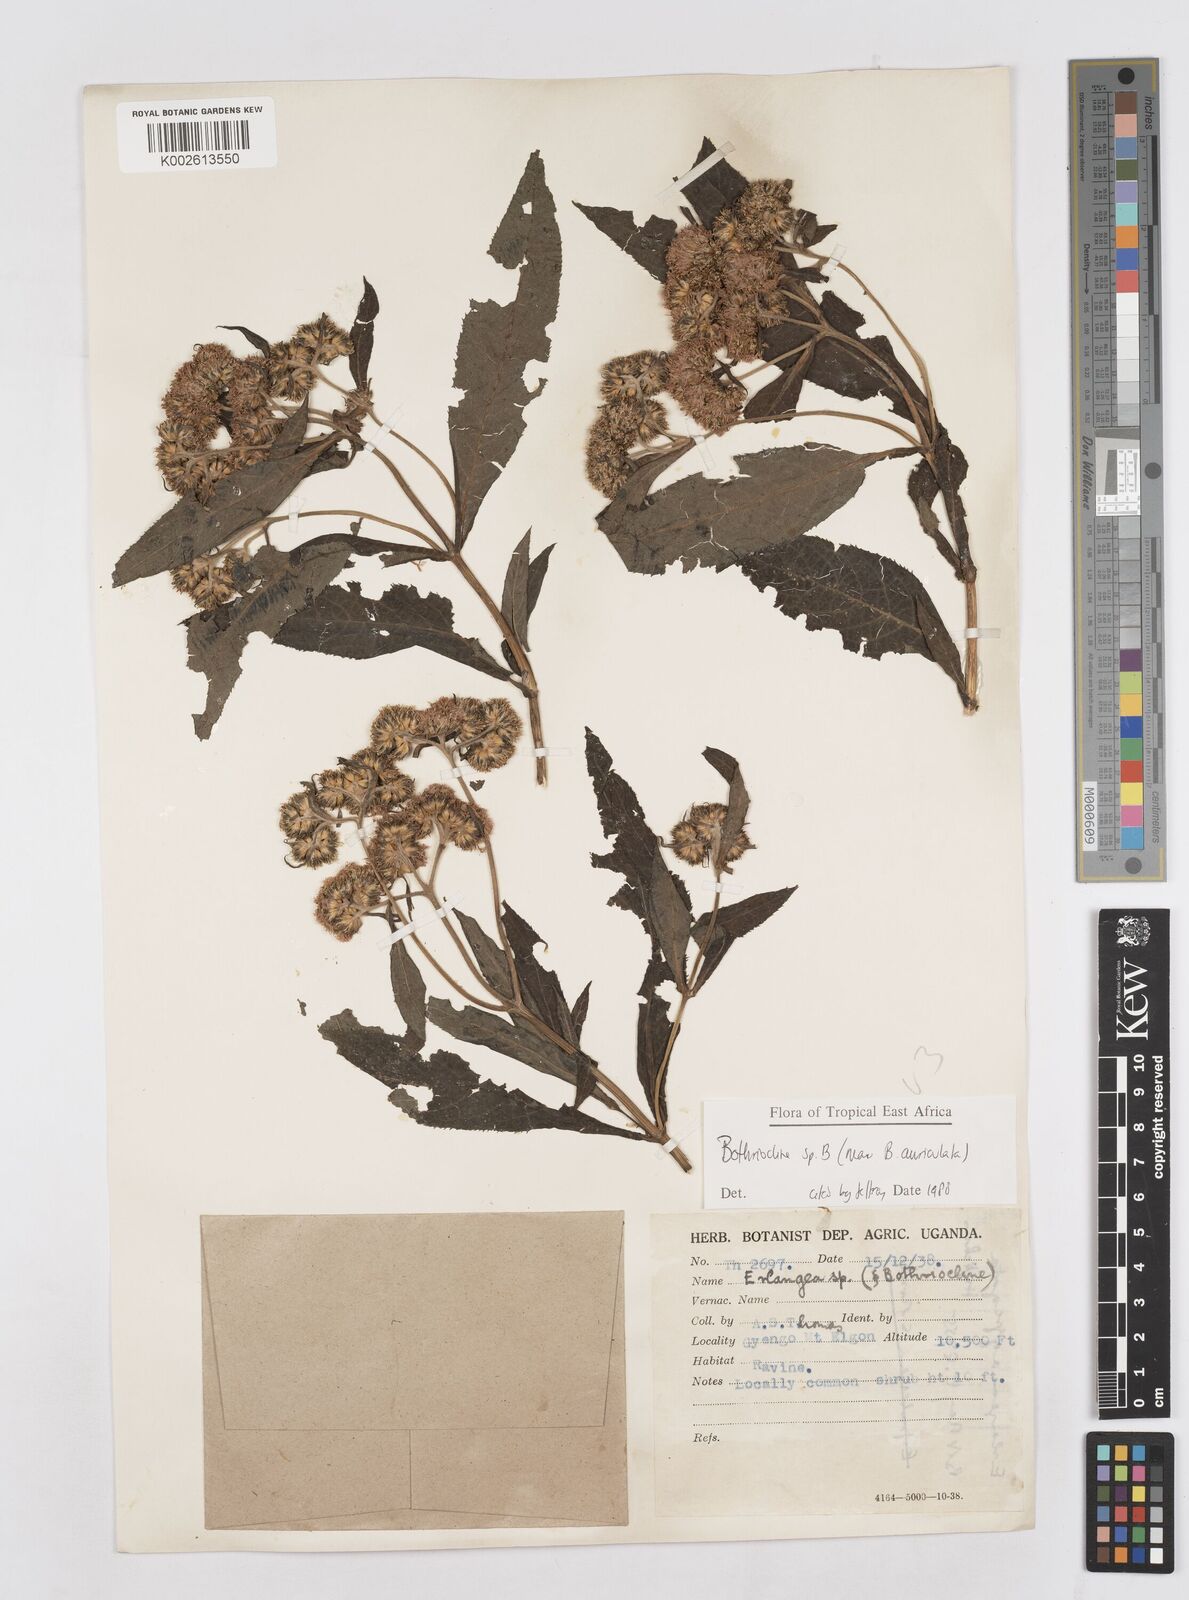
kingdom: Plantae
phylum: Tracheophyta
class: Magnoliopsida
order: Asterales
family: Asteraceae
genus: Bothriocline
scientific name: Bothriocline
